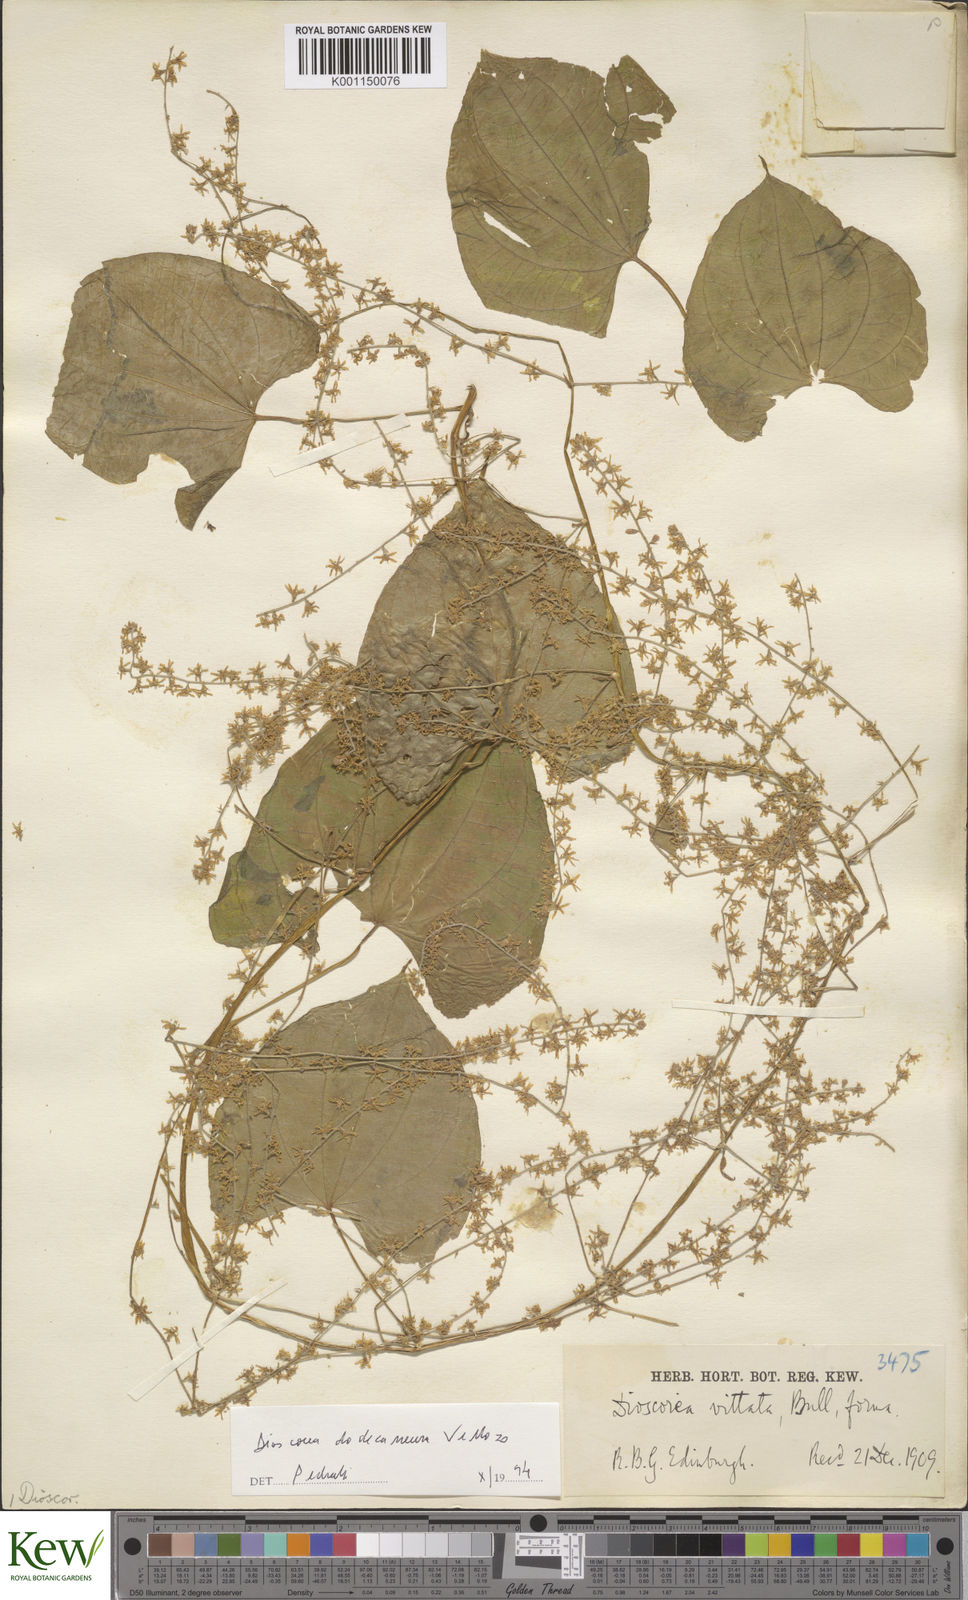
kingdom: Plantae
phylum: Tracheophyta
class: Liliopsida
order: Dioscoreales
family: Dioscoreaceae
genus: Dioscorea
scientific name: Dioscorea dodecaneura
